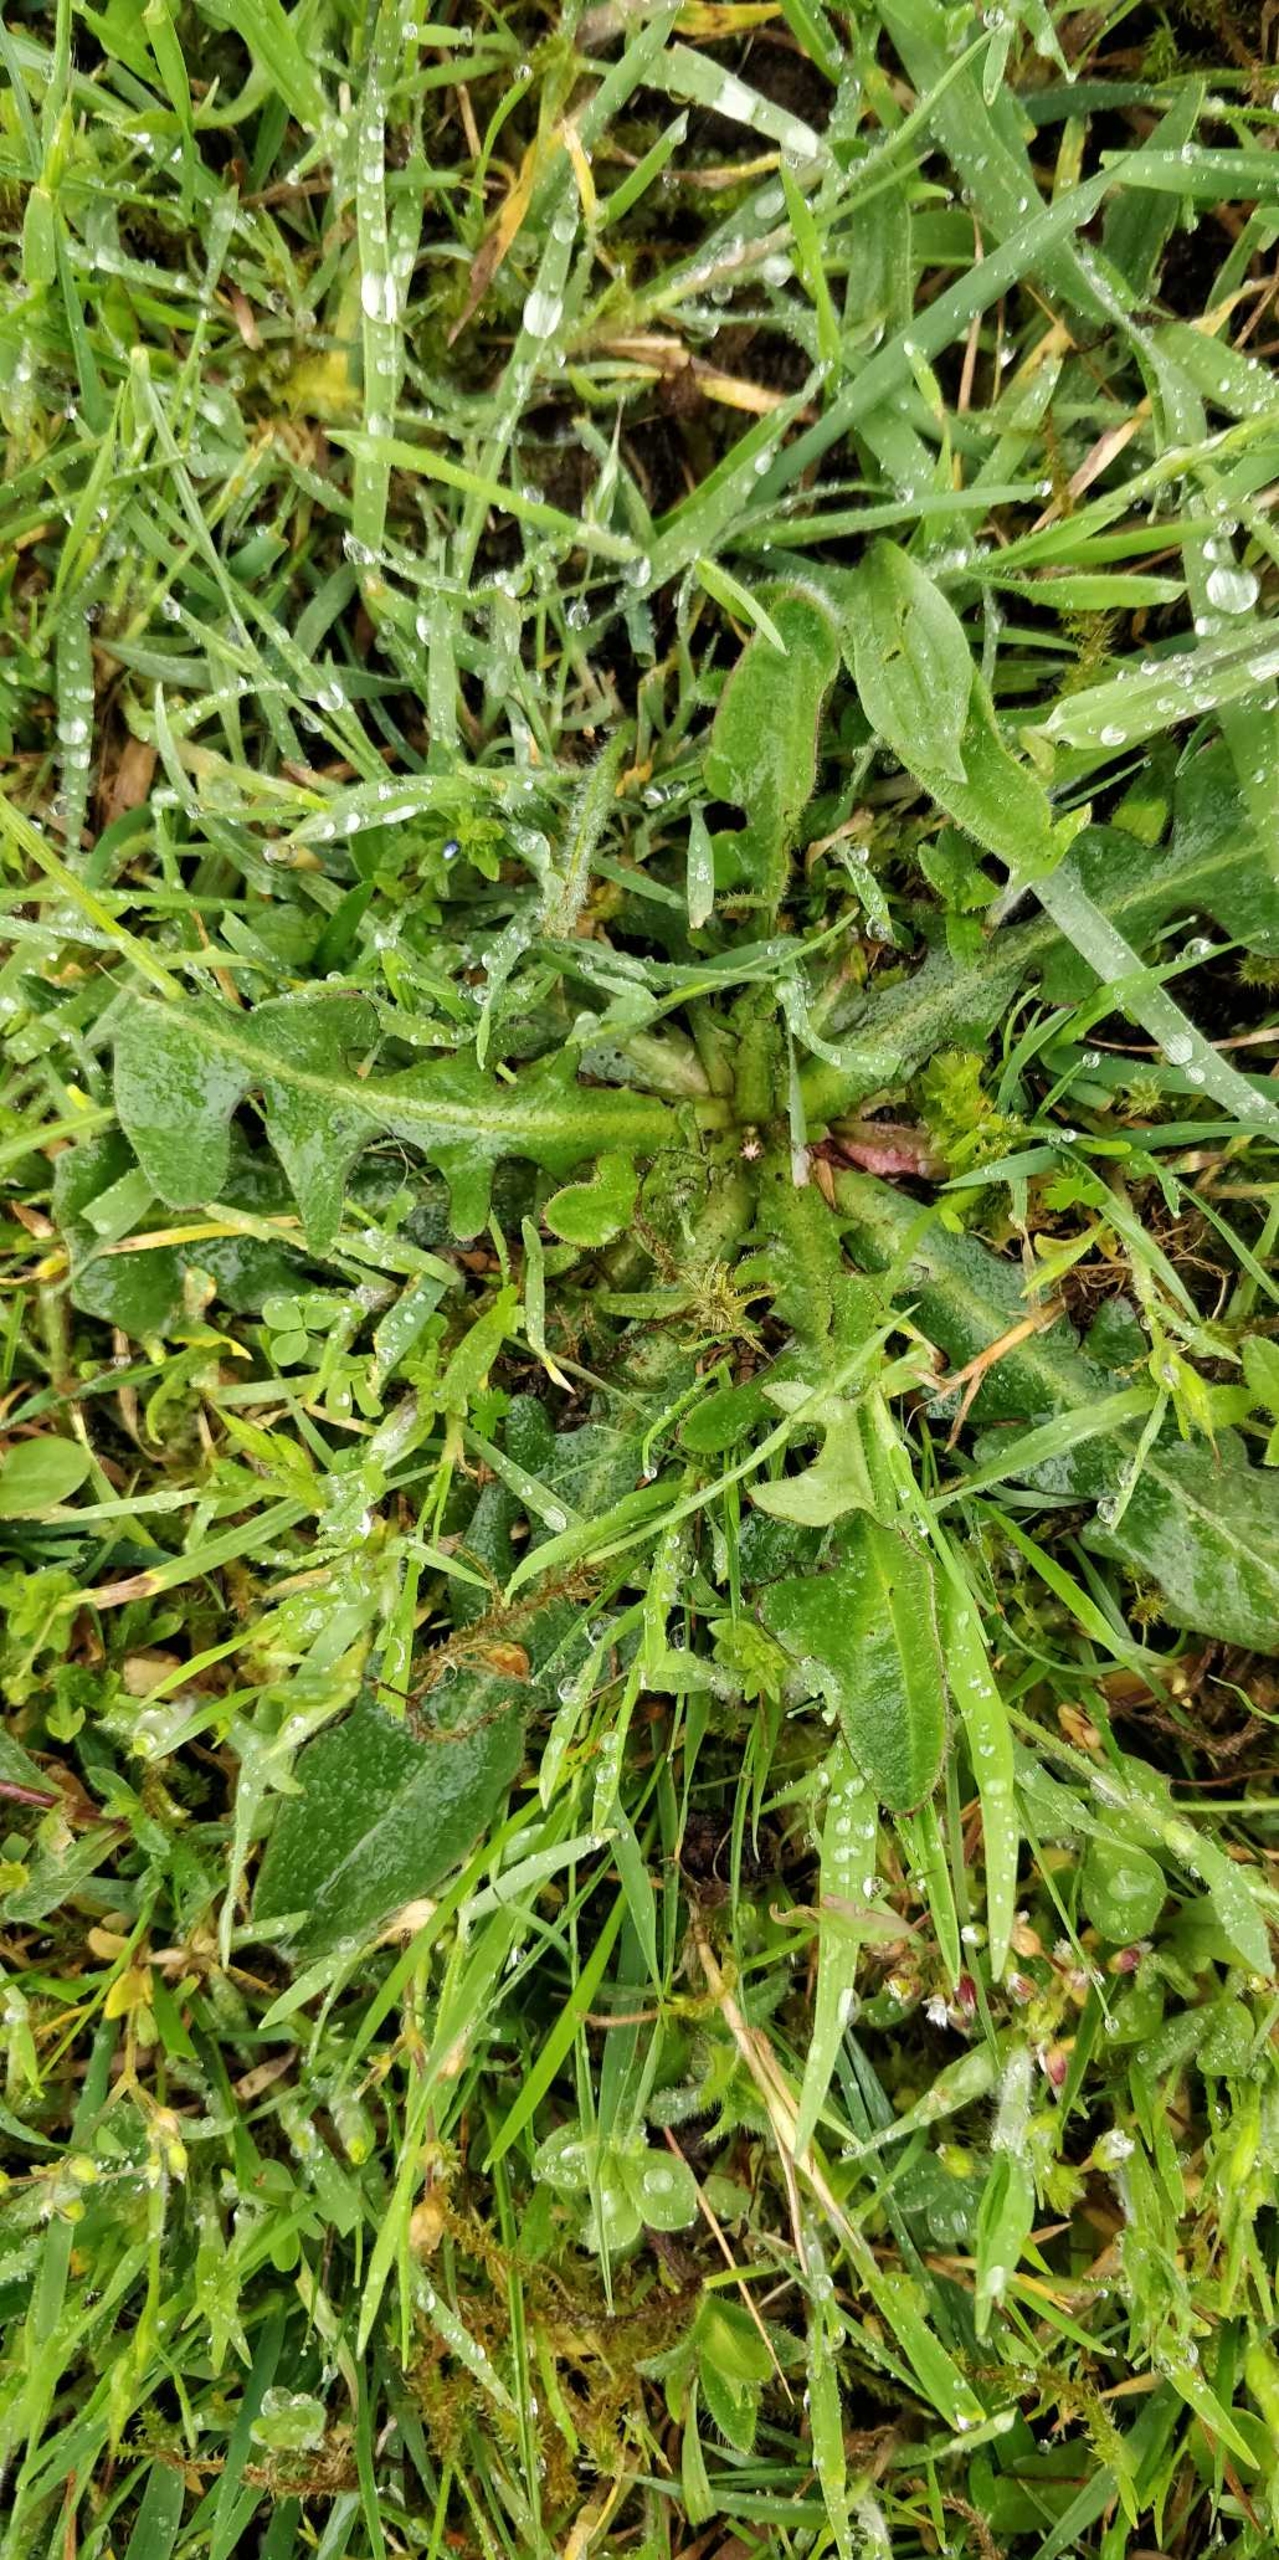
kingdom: Plantae
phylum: Tracheophyta
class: Magnoliopsida
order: Asterales
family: Asteraceae
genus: Hypochaeris
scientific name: Hypochaeris radicata
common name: Almindelig kongepen
